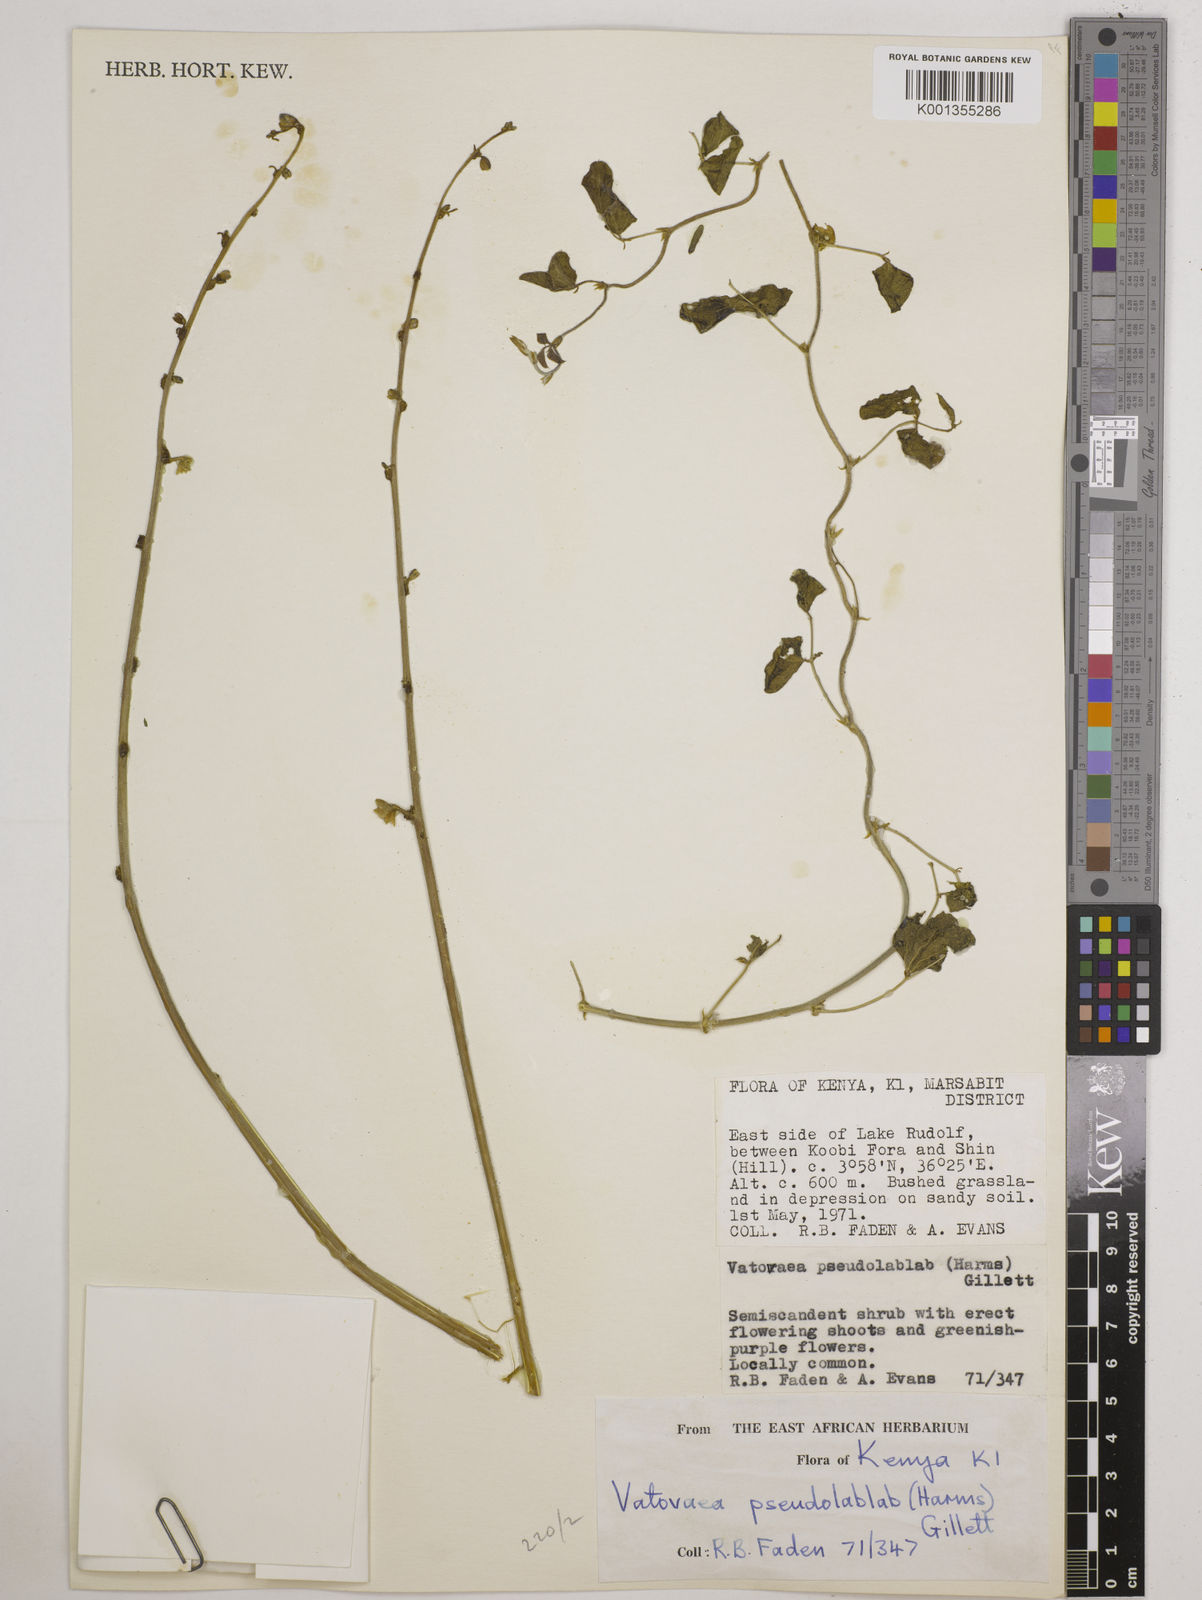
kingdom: Plantae
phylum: Tracheophyta
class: Magnoliopsida
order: Fabales
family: Fabaceae
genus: Vatovaea
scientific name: Vatovaea pseudolablab
